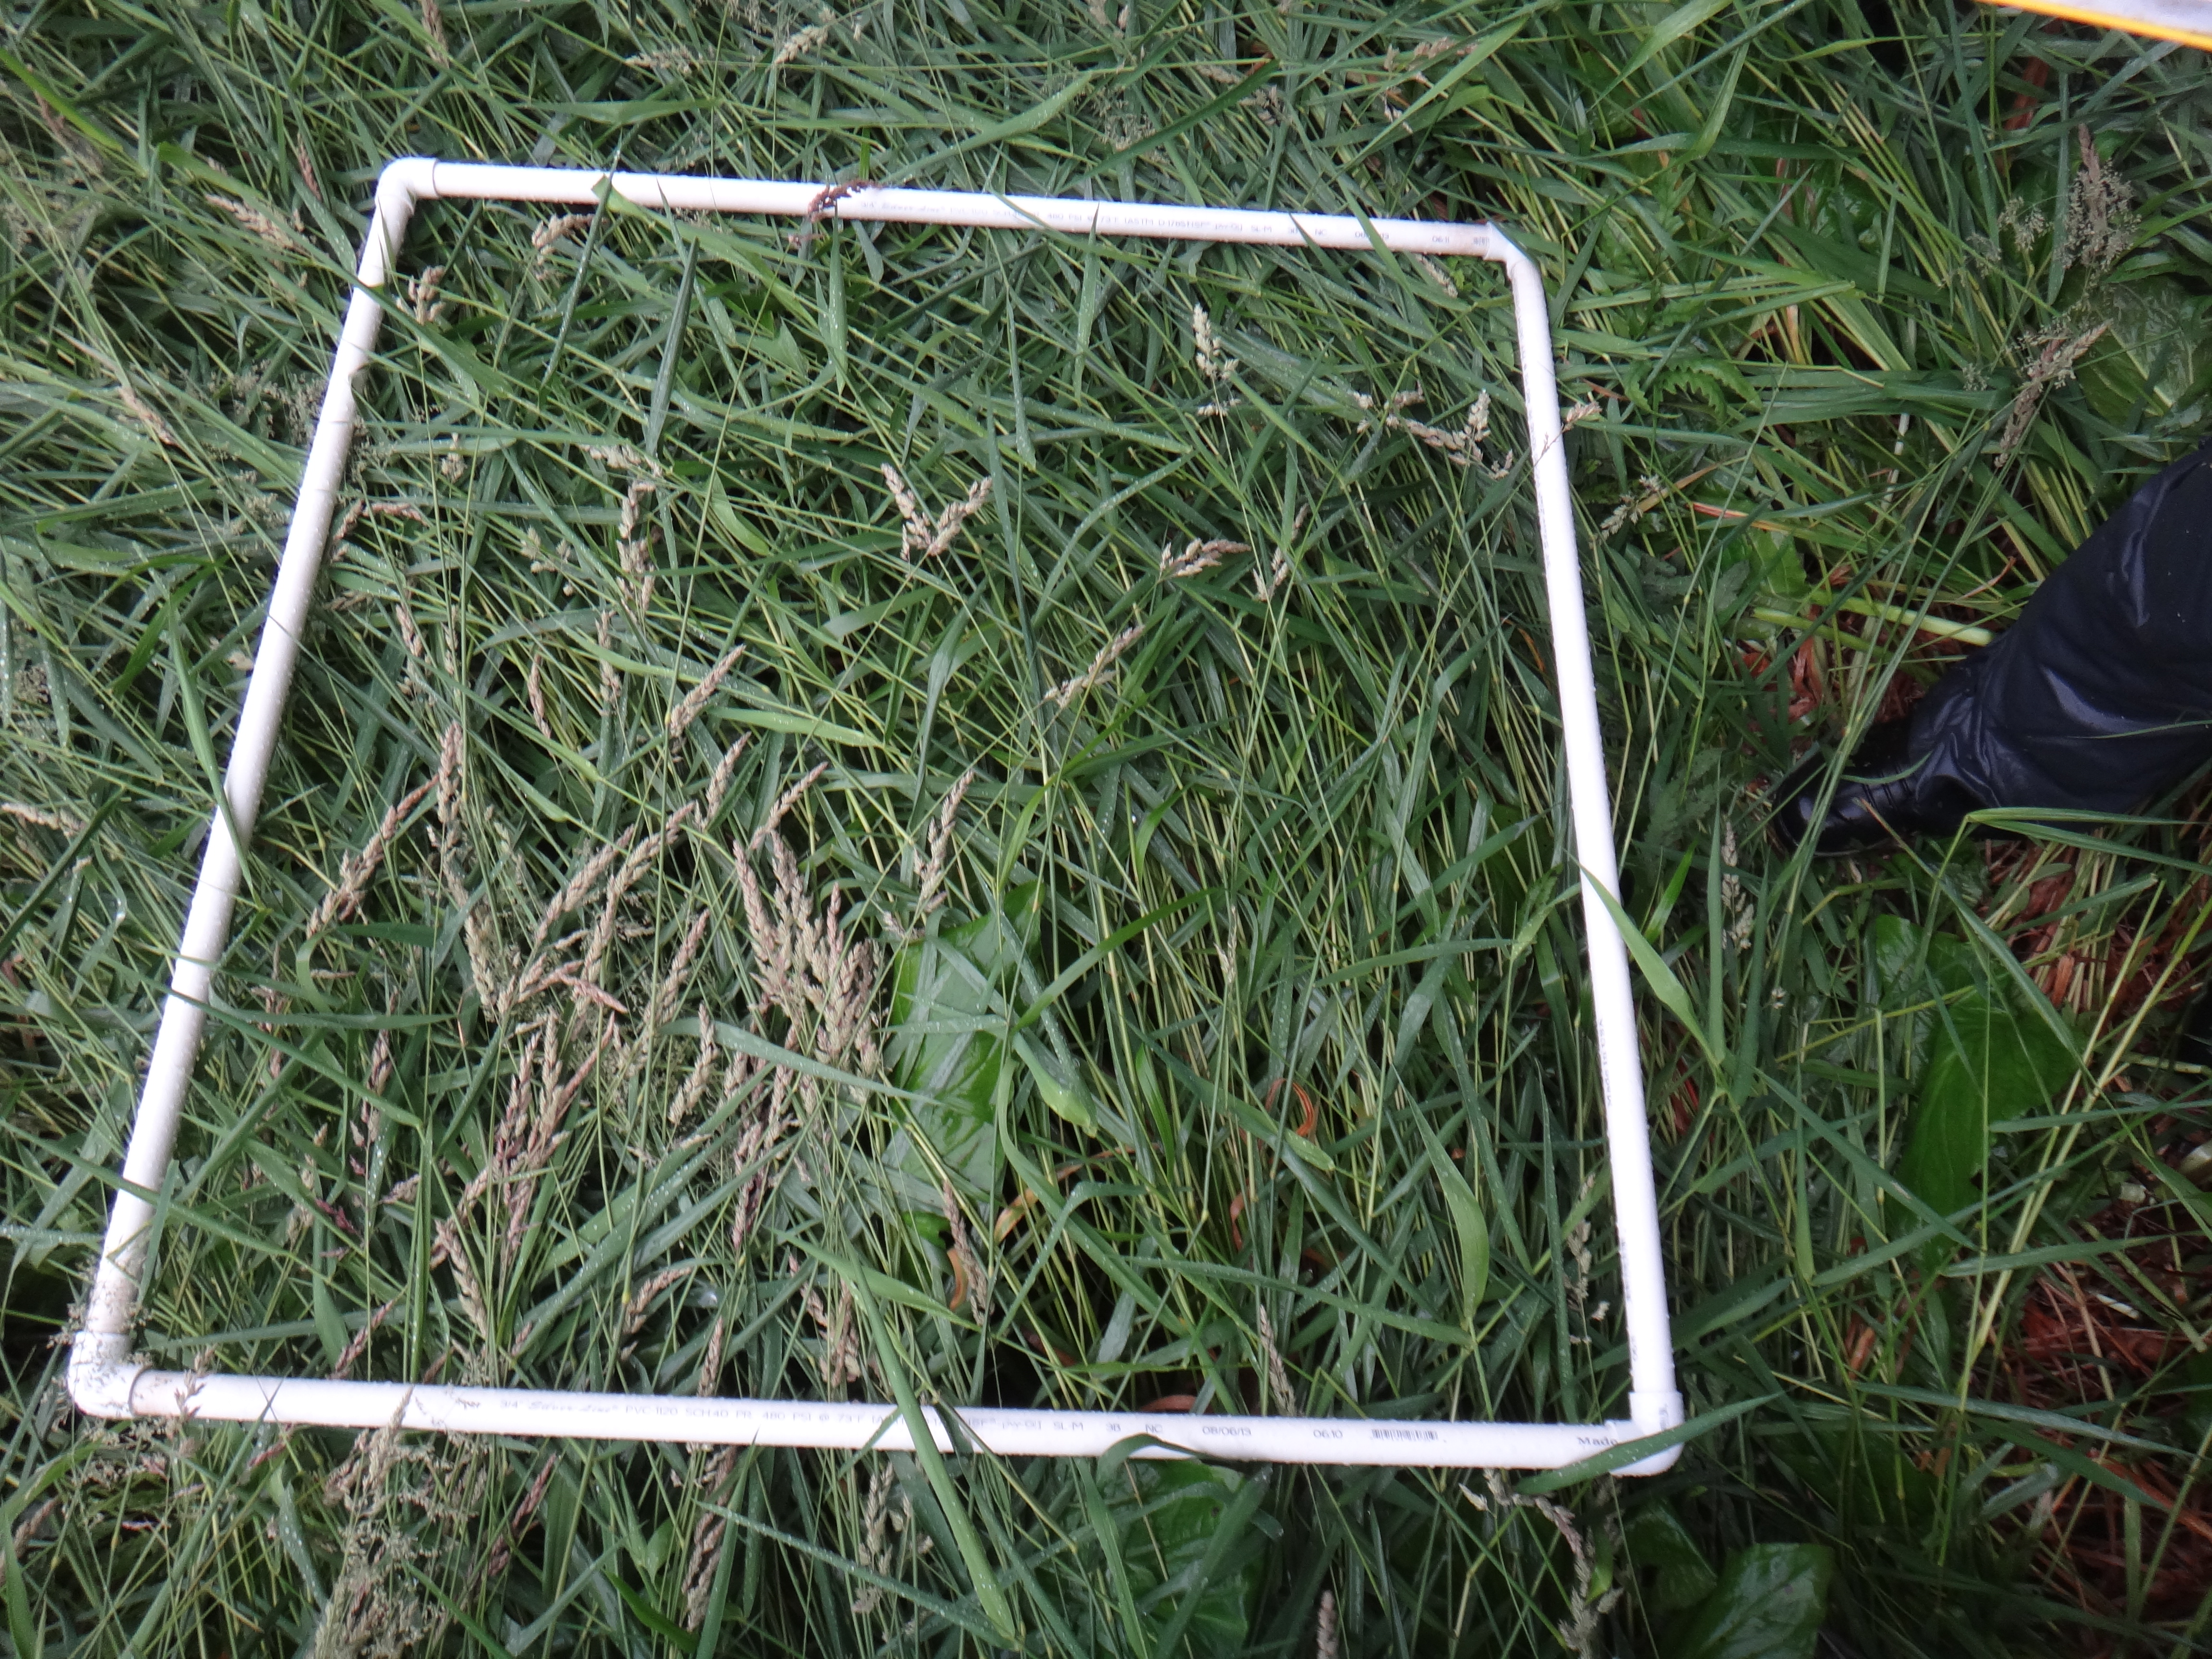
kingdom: Plantae
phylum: Tracheophyta
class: Liliopsida
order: Alismatales
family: Araceae
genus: Symplocarpus
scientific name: Symplocarpus foetidus
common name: Eastern skunk cabbage
